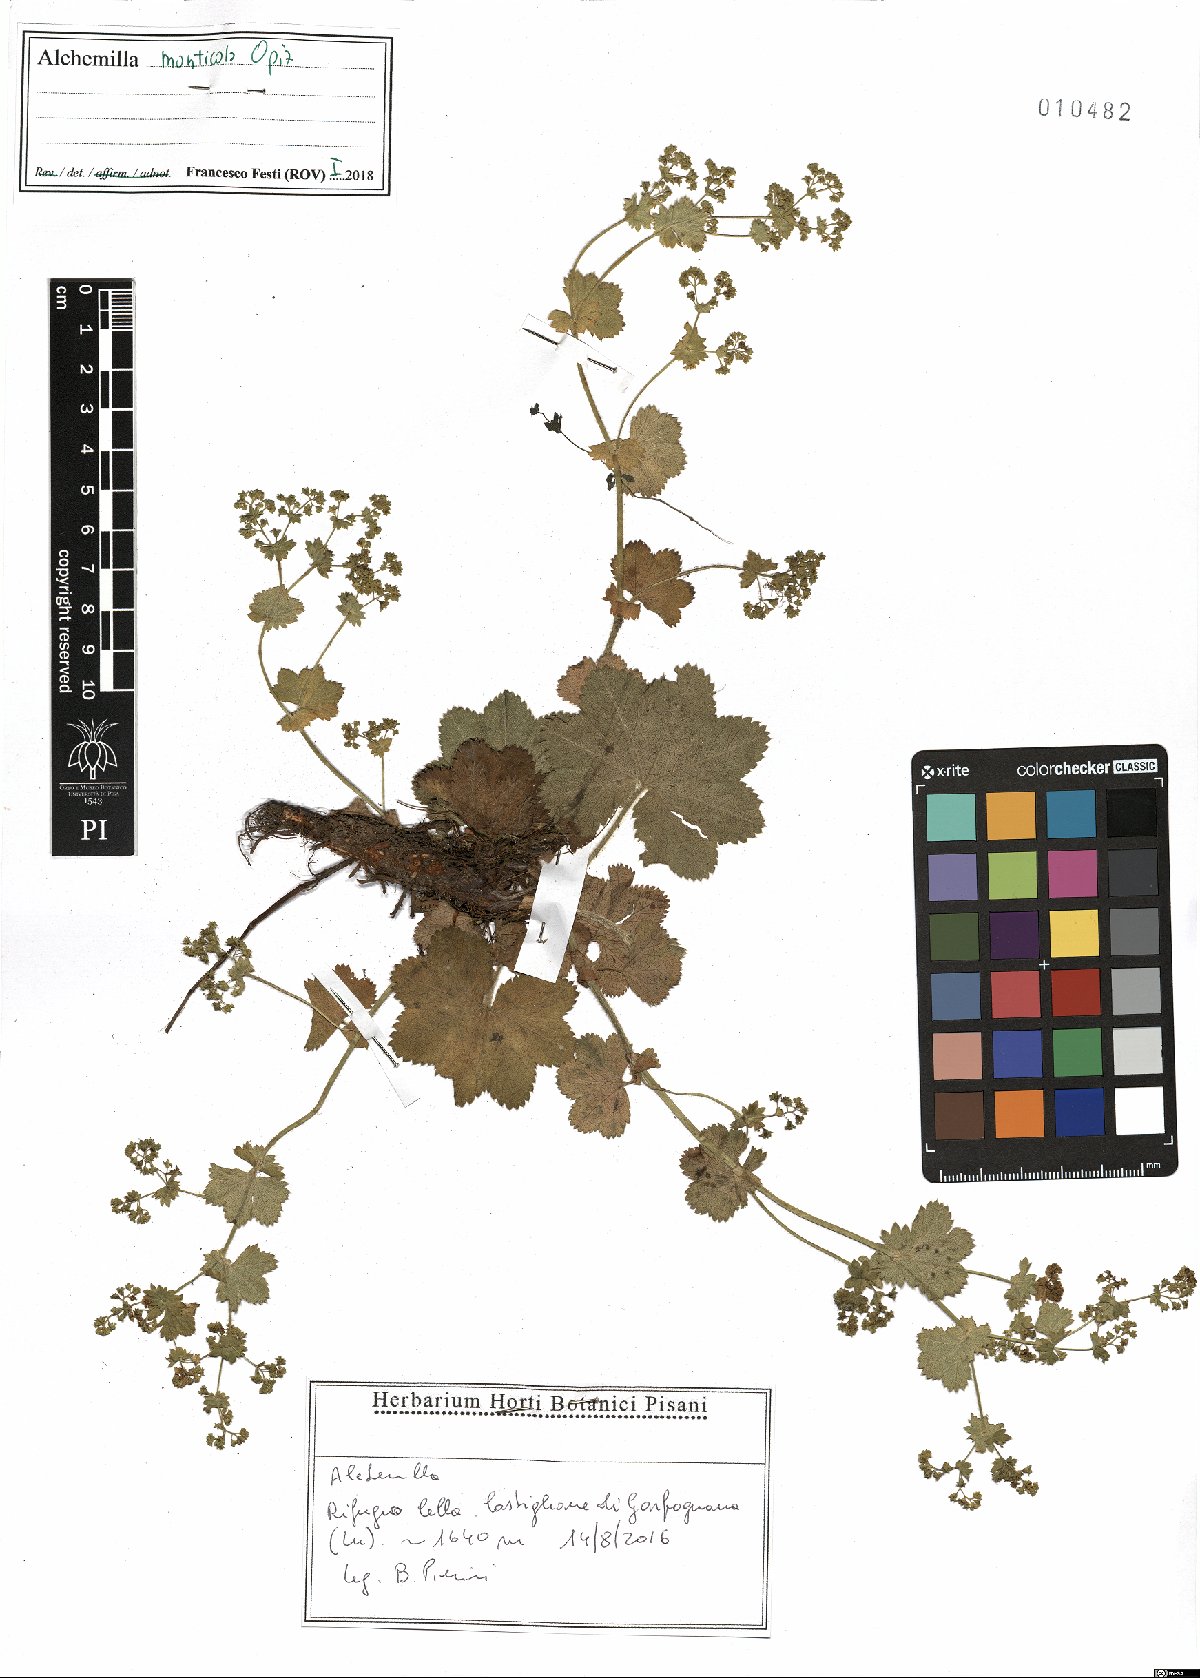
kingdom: Plantae
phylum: Tracheophyta
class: Magnoliopsida
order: Rosales
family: Rosaceae
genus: Alchemilla
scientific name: Alchemilla monticola
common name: Hairy lady's mantle
